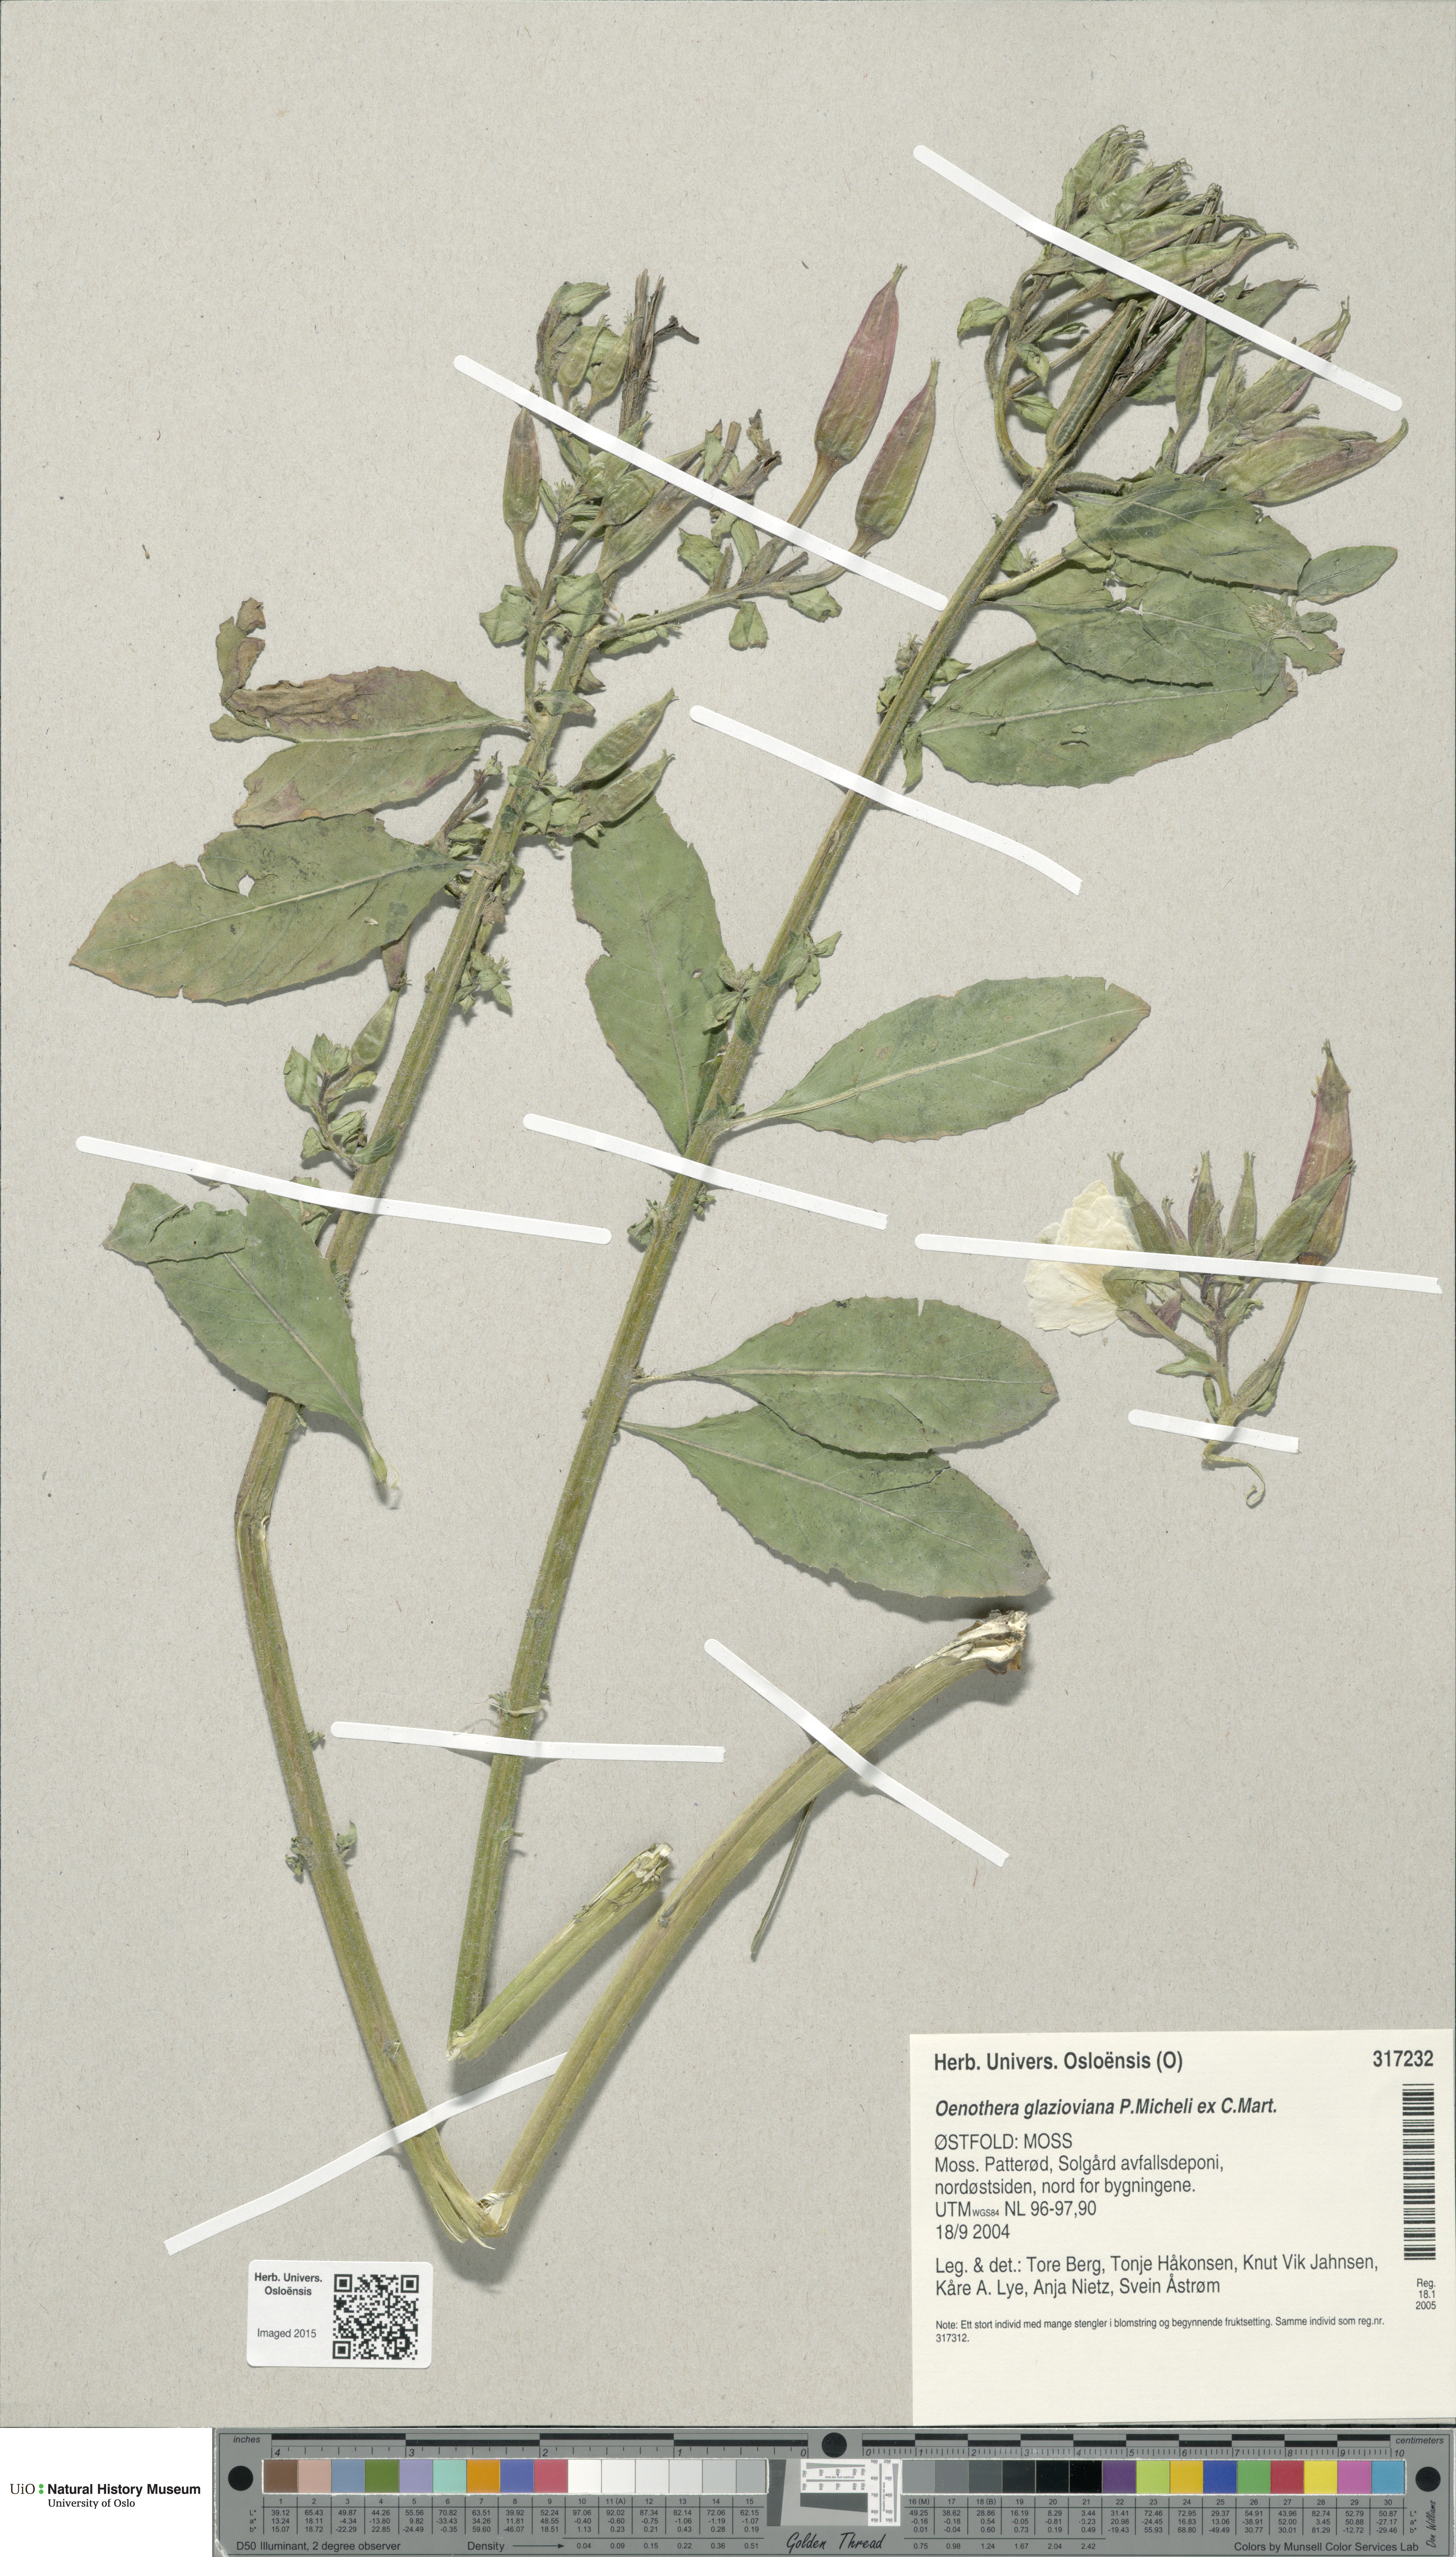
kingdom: Plantae
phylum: Tracheophyta
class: Magnoliopsida
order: Myrtales
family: Onagraceae
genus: Oenothera
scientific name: Oenothera glazioviana
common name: Large-flowered evening-primrose
